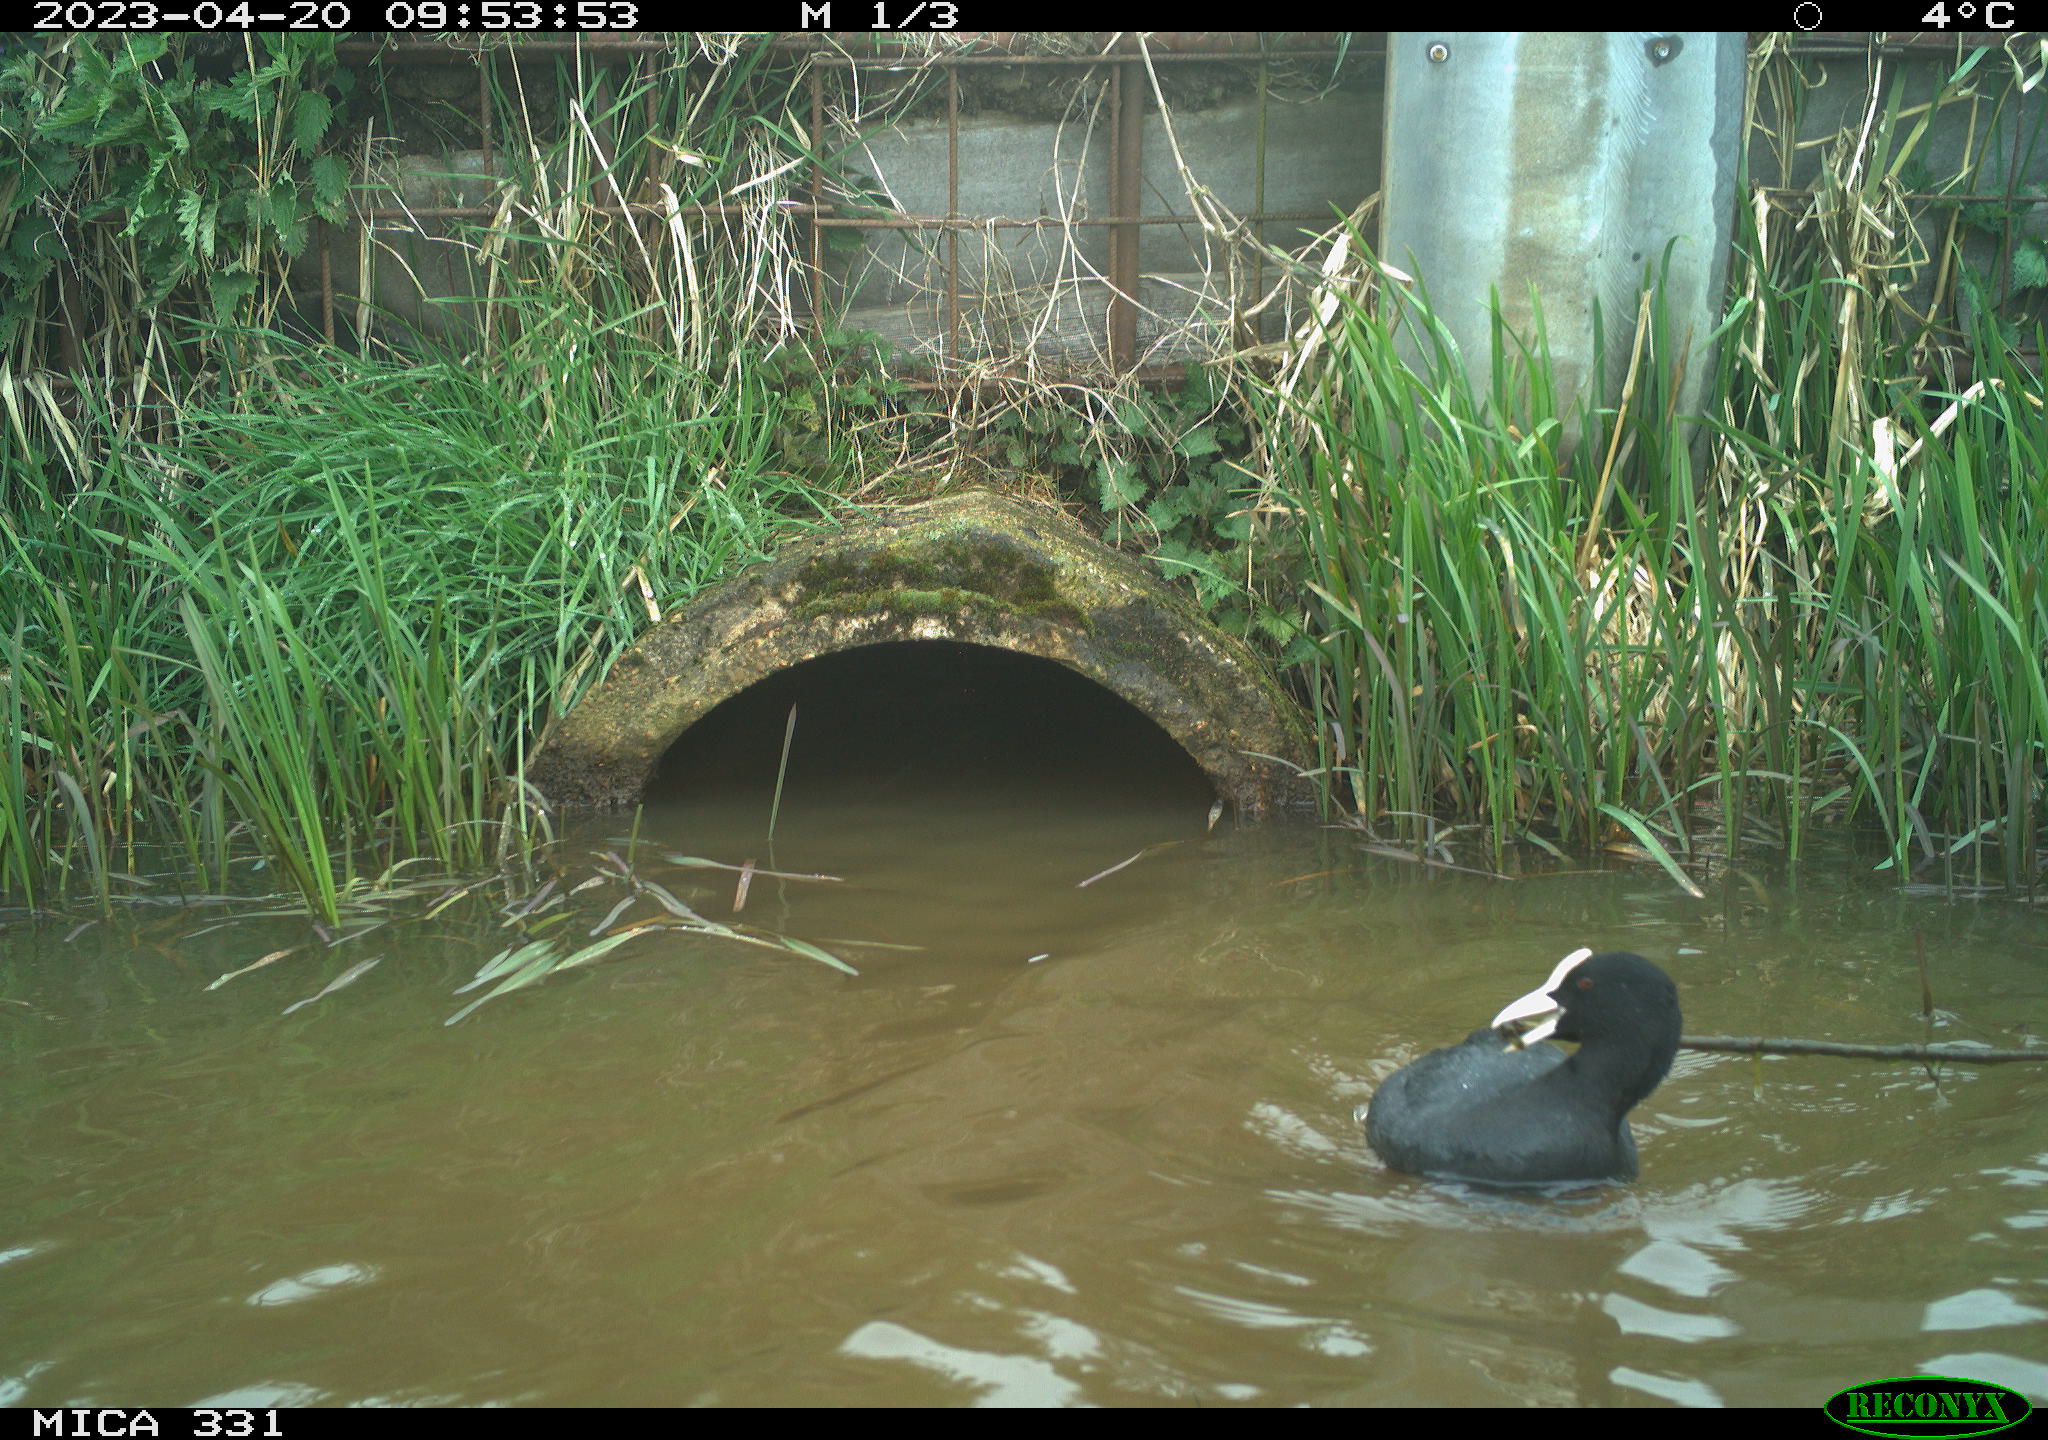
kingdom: Animalia
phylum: Chordata
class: Aves
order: Gruiformes
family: Rallidae
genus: Fulica
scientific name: Fulica atra
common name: Eurasian coot
